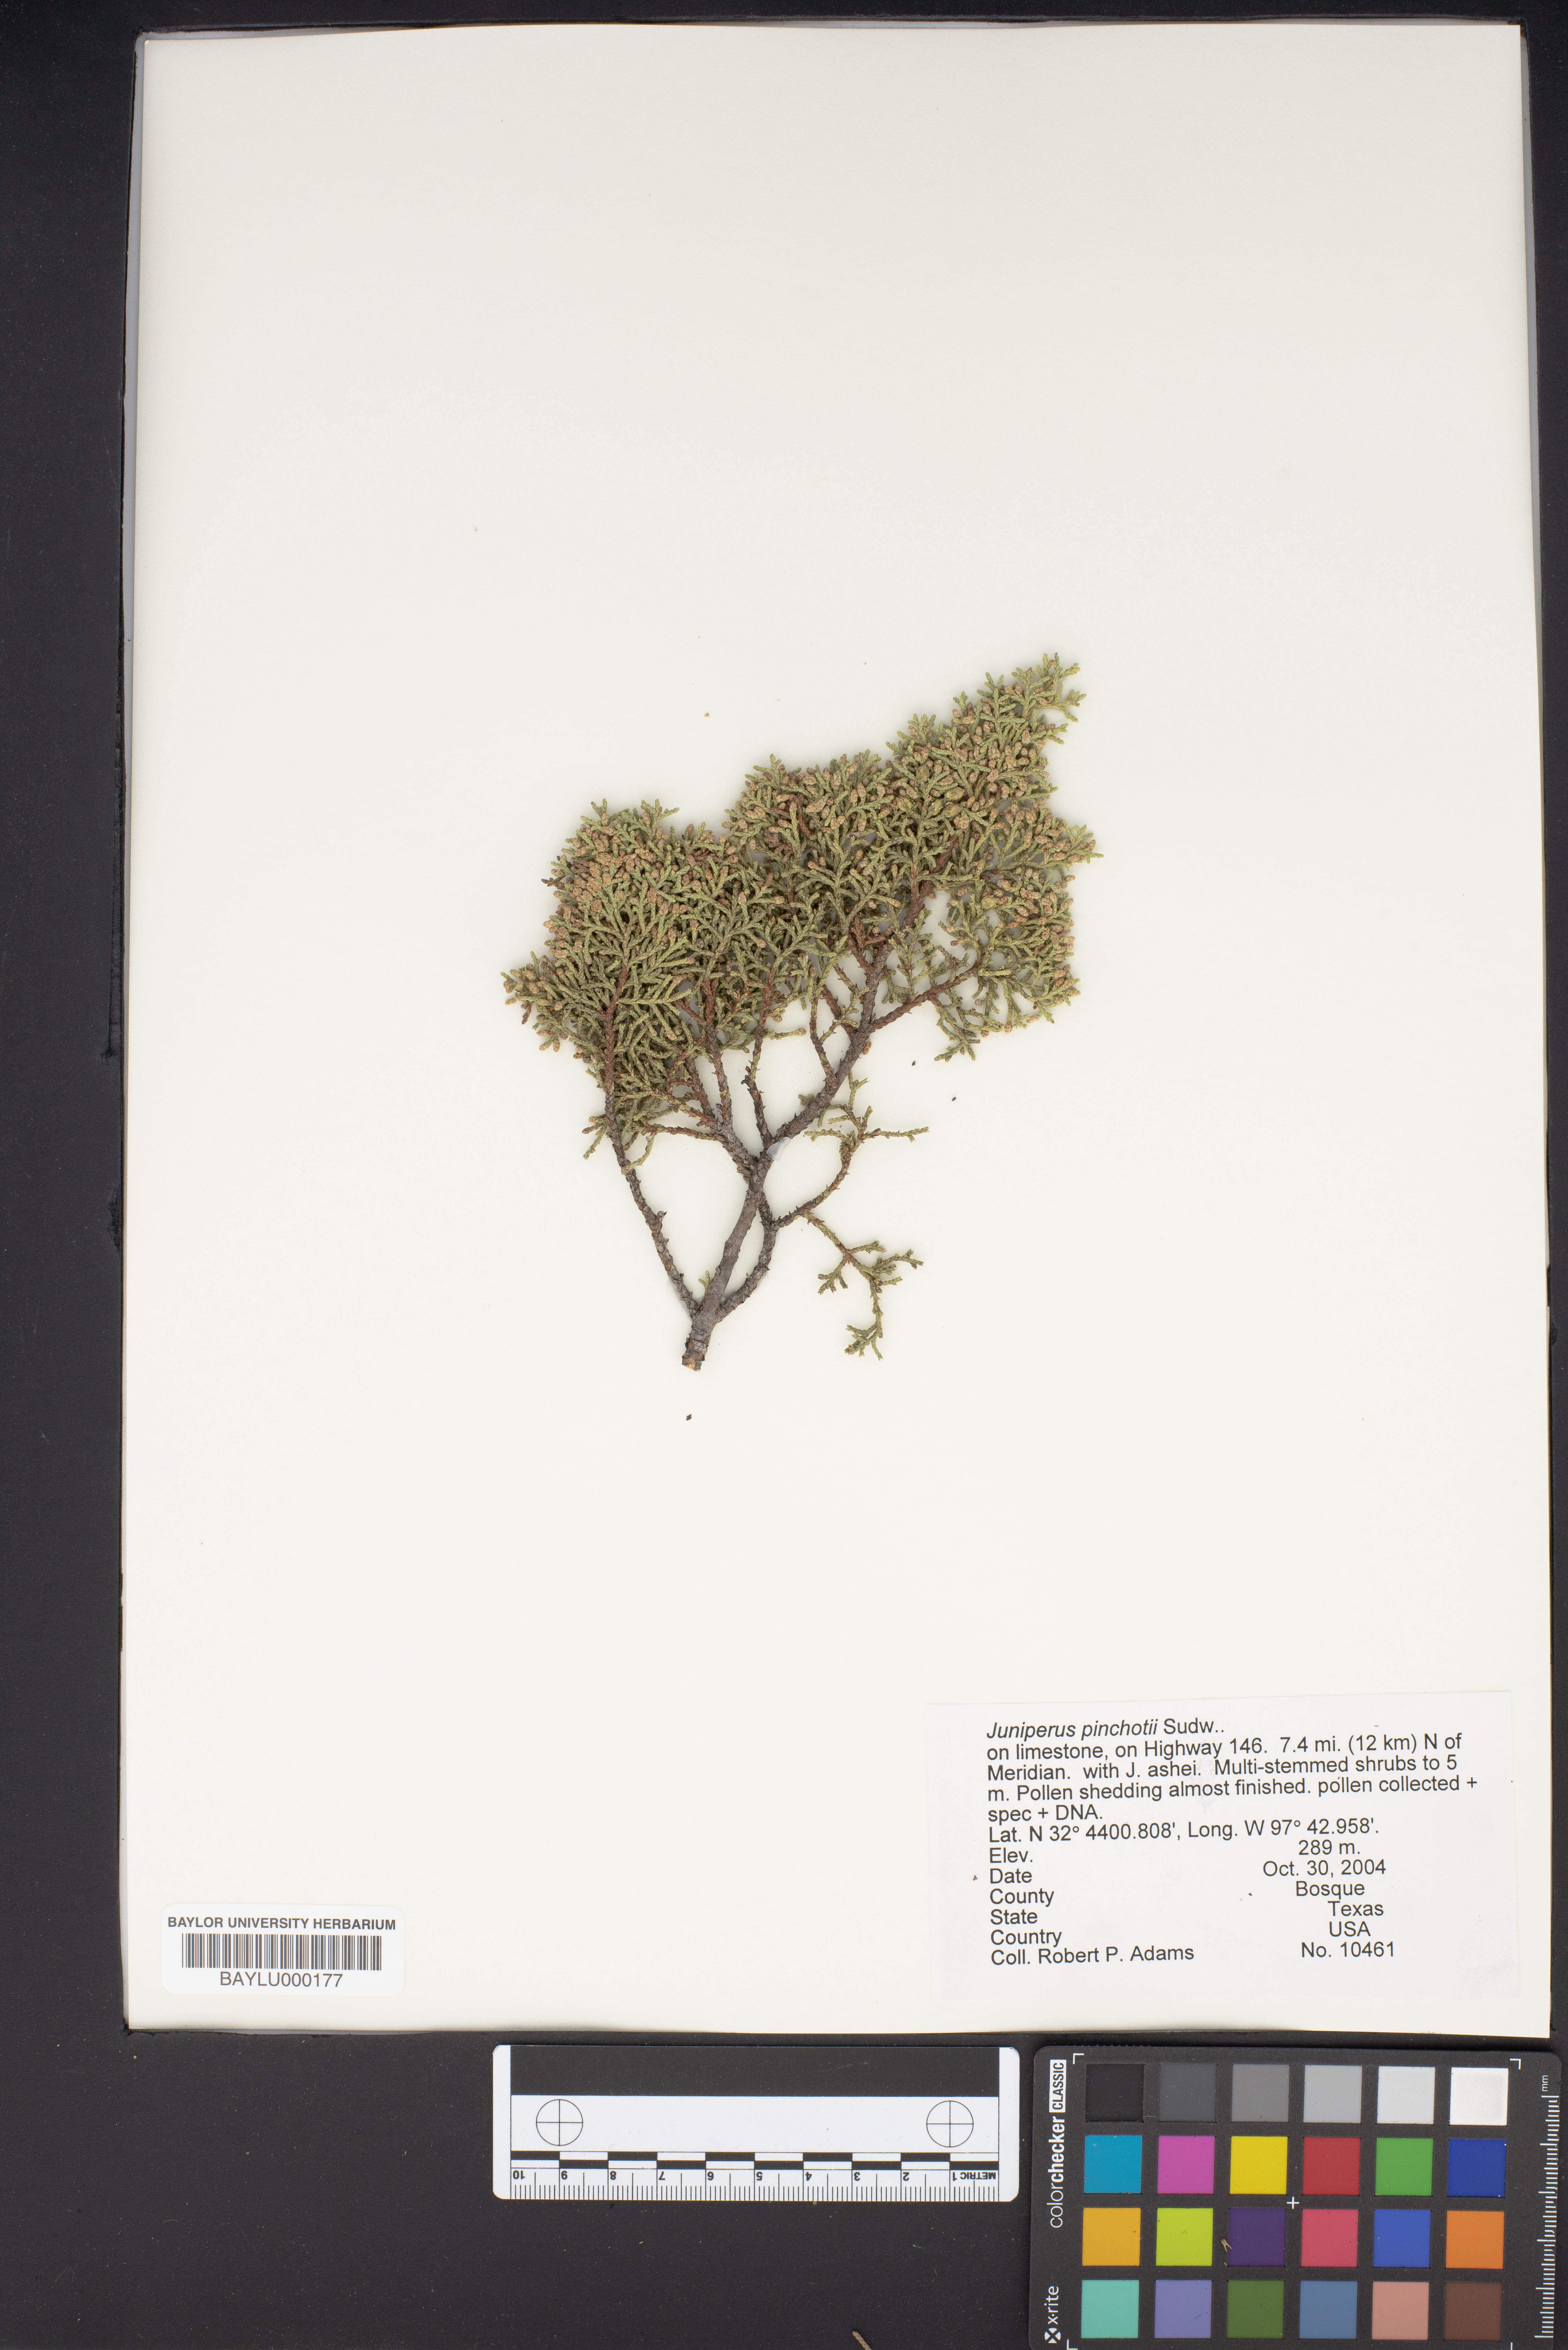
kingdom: Plantae
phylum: Tracheophyta
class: Pinopsida
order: Pinales
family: Cupressaceae
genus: Juniperus
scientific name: Juniperus pinchotii
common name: Pinchot juniper
